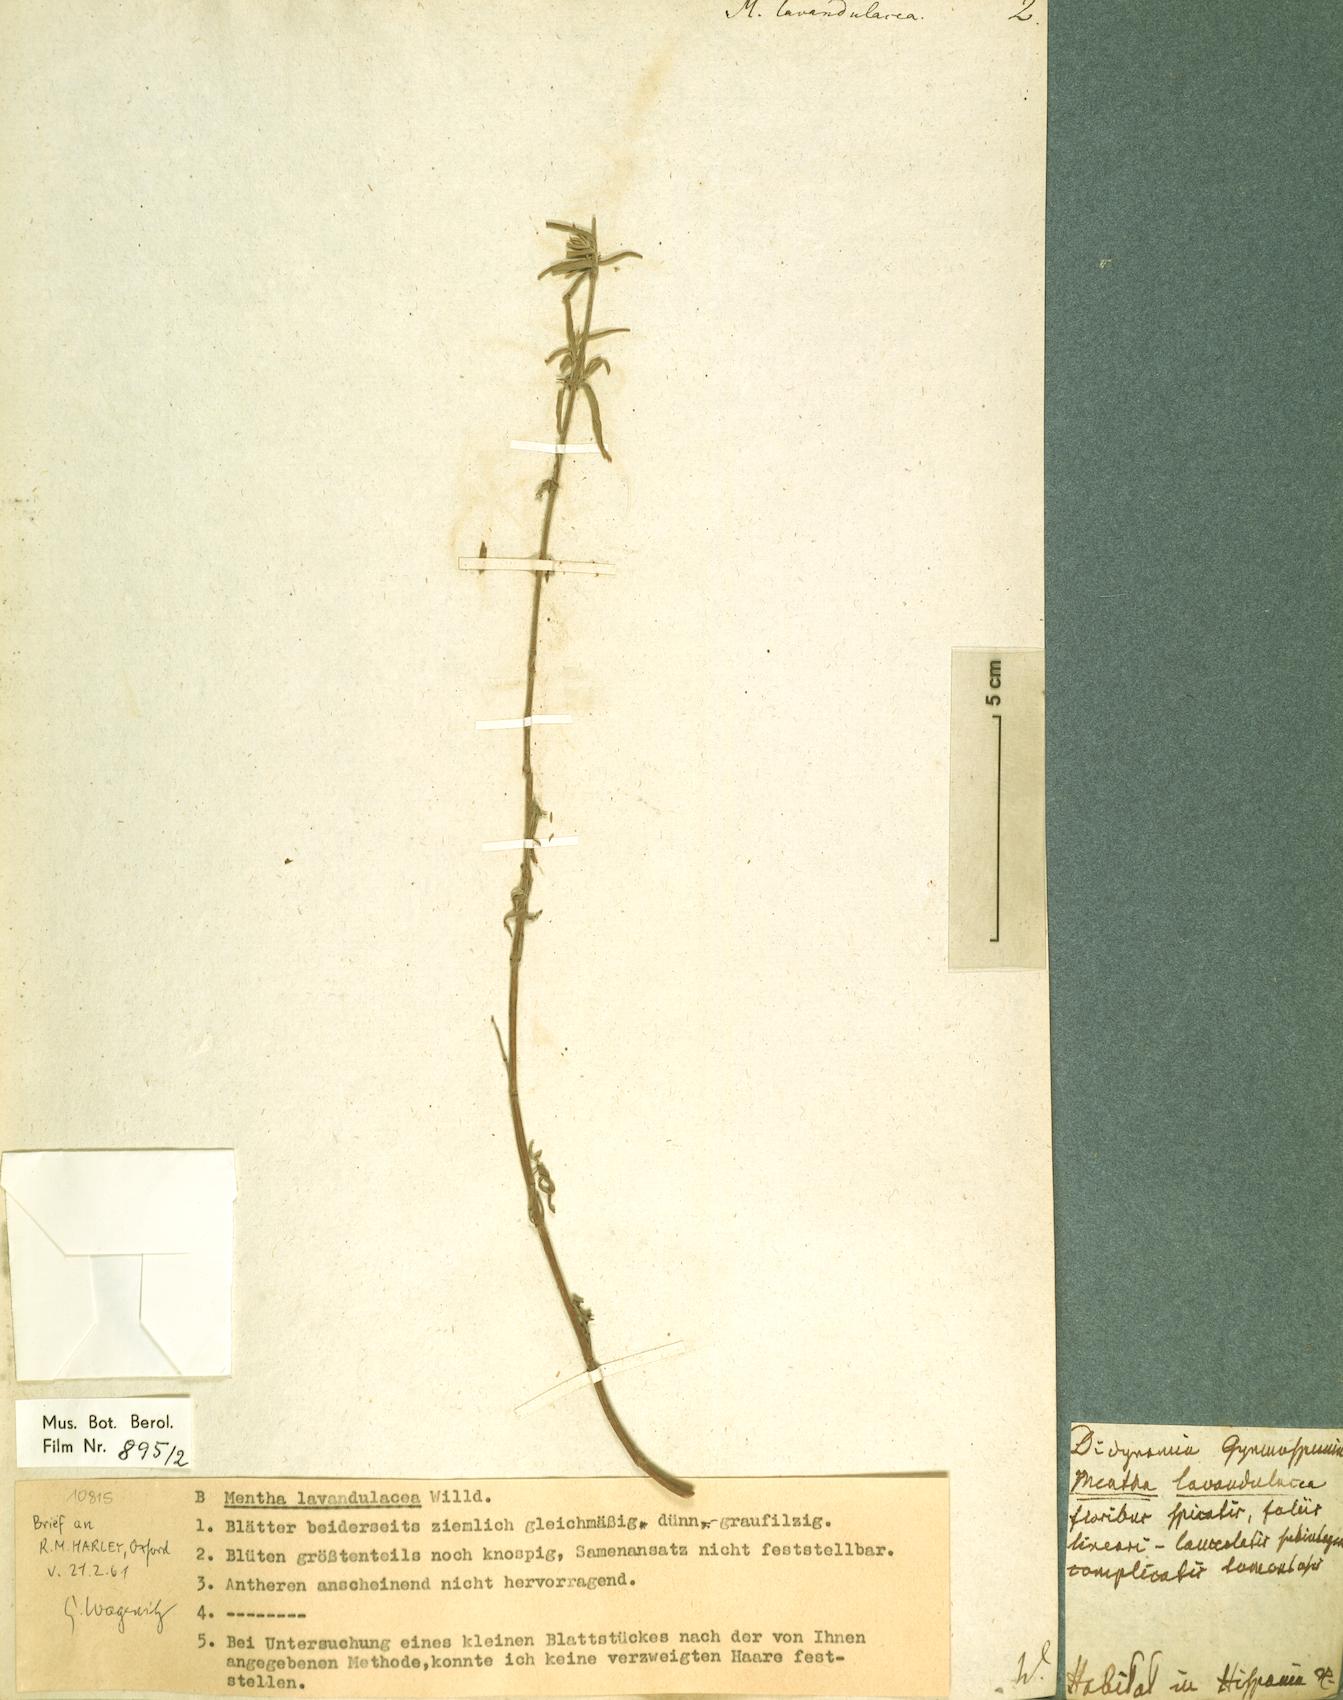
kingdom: Plantae
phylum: Tracheophyta
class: Magnoliopsida
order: Lamiales
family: Lamiaceae
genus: Mentha
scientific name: Mentha longifolia
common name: Horse mint
